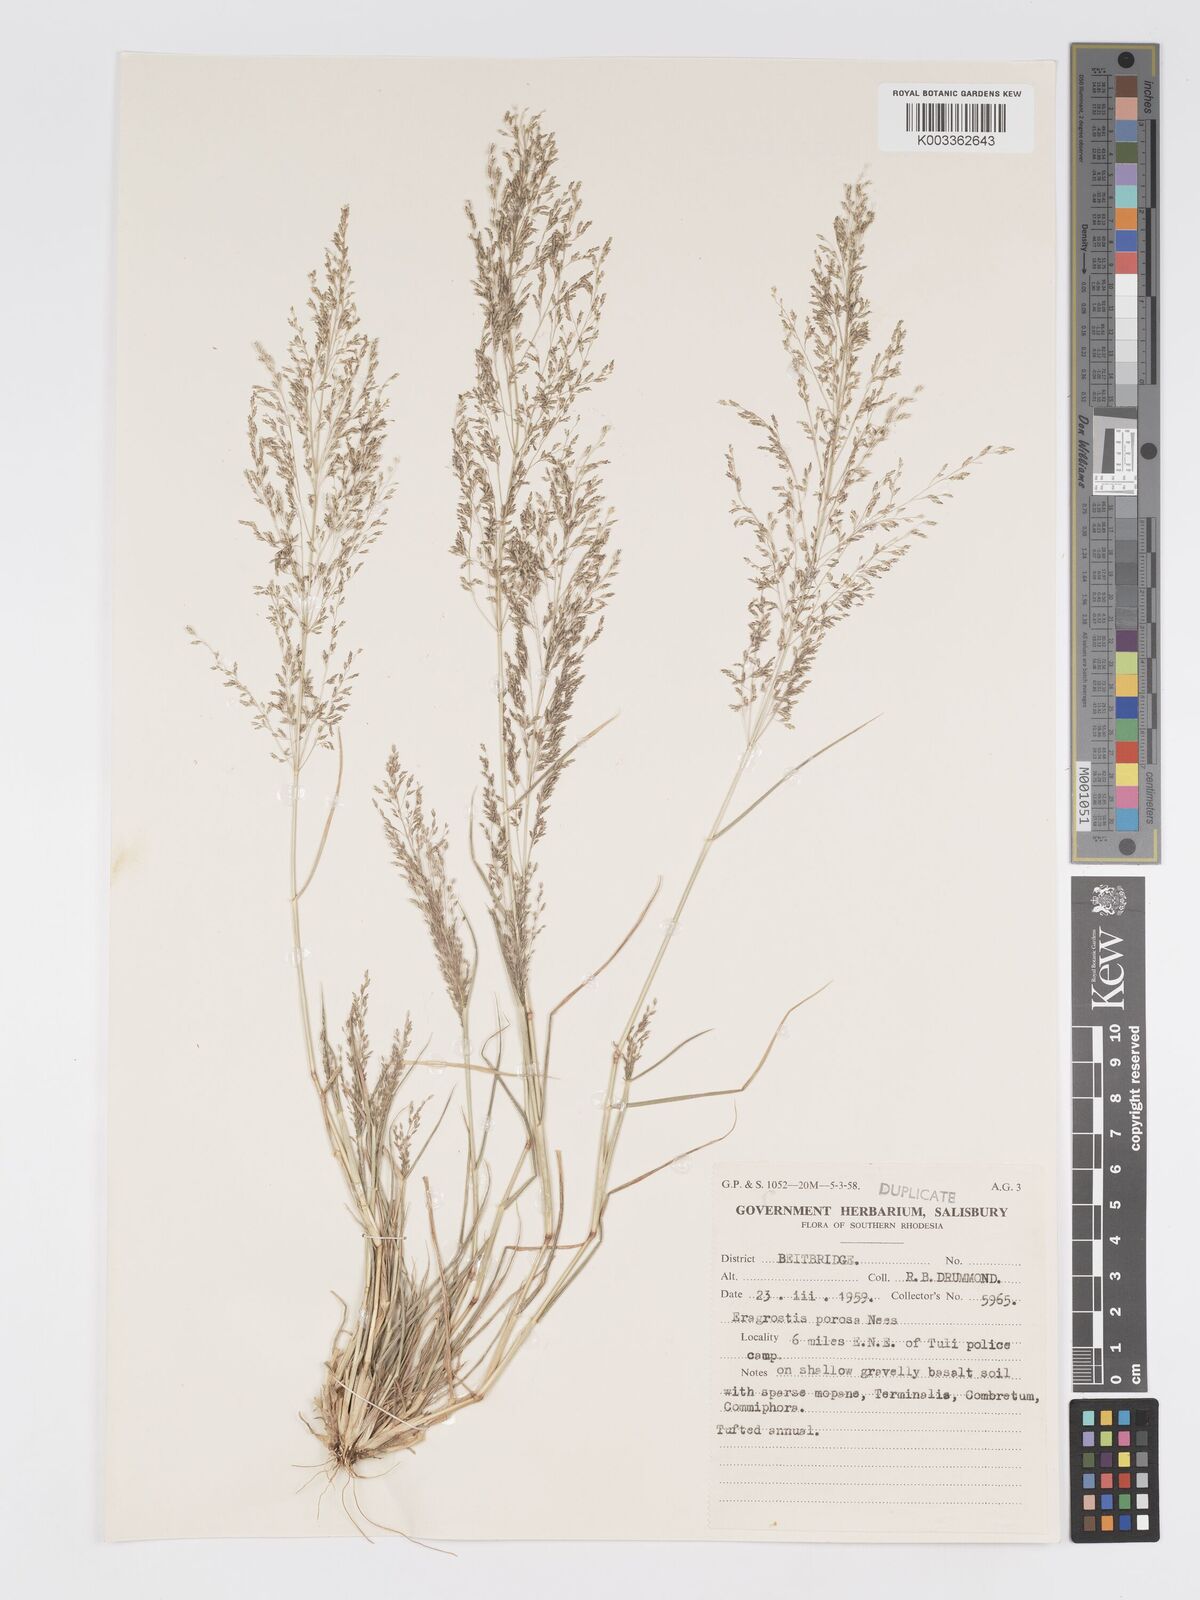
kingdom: Plantae
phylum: Tracheophyta
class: Liliopsida
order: Poales
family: Poaceae
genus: Eragrostis
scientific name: Eragrostis porosa
